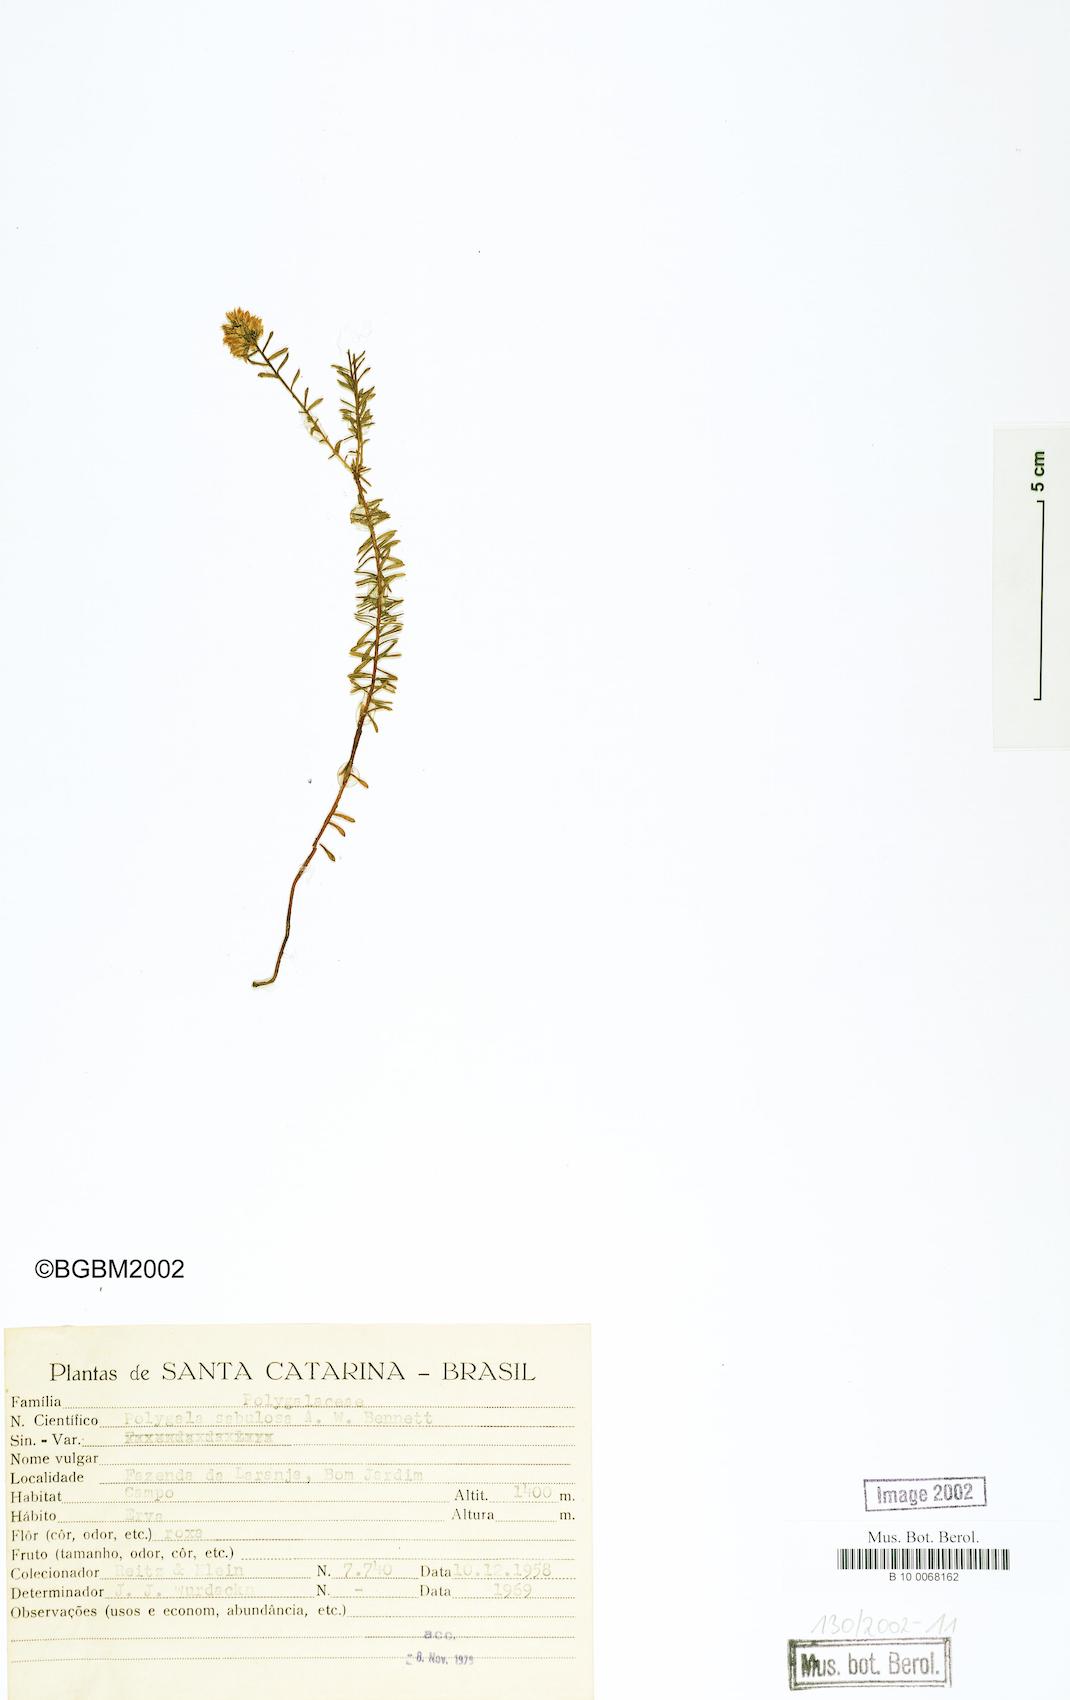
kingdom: Plantae
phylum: Tracheophyta
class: Magnoliopsida
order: Fabales
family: Polygalaceae
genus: Polygala
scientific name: Polygala sellowiana
